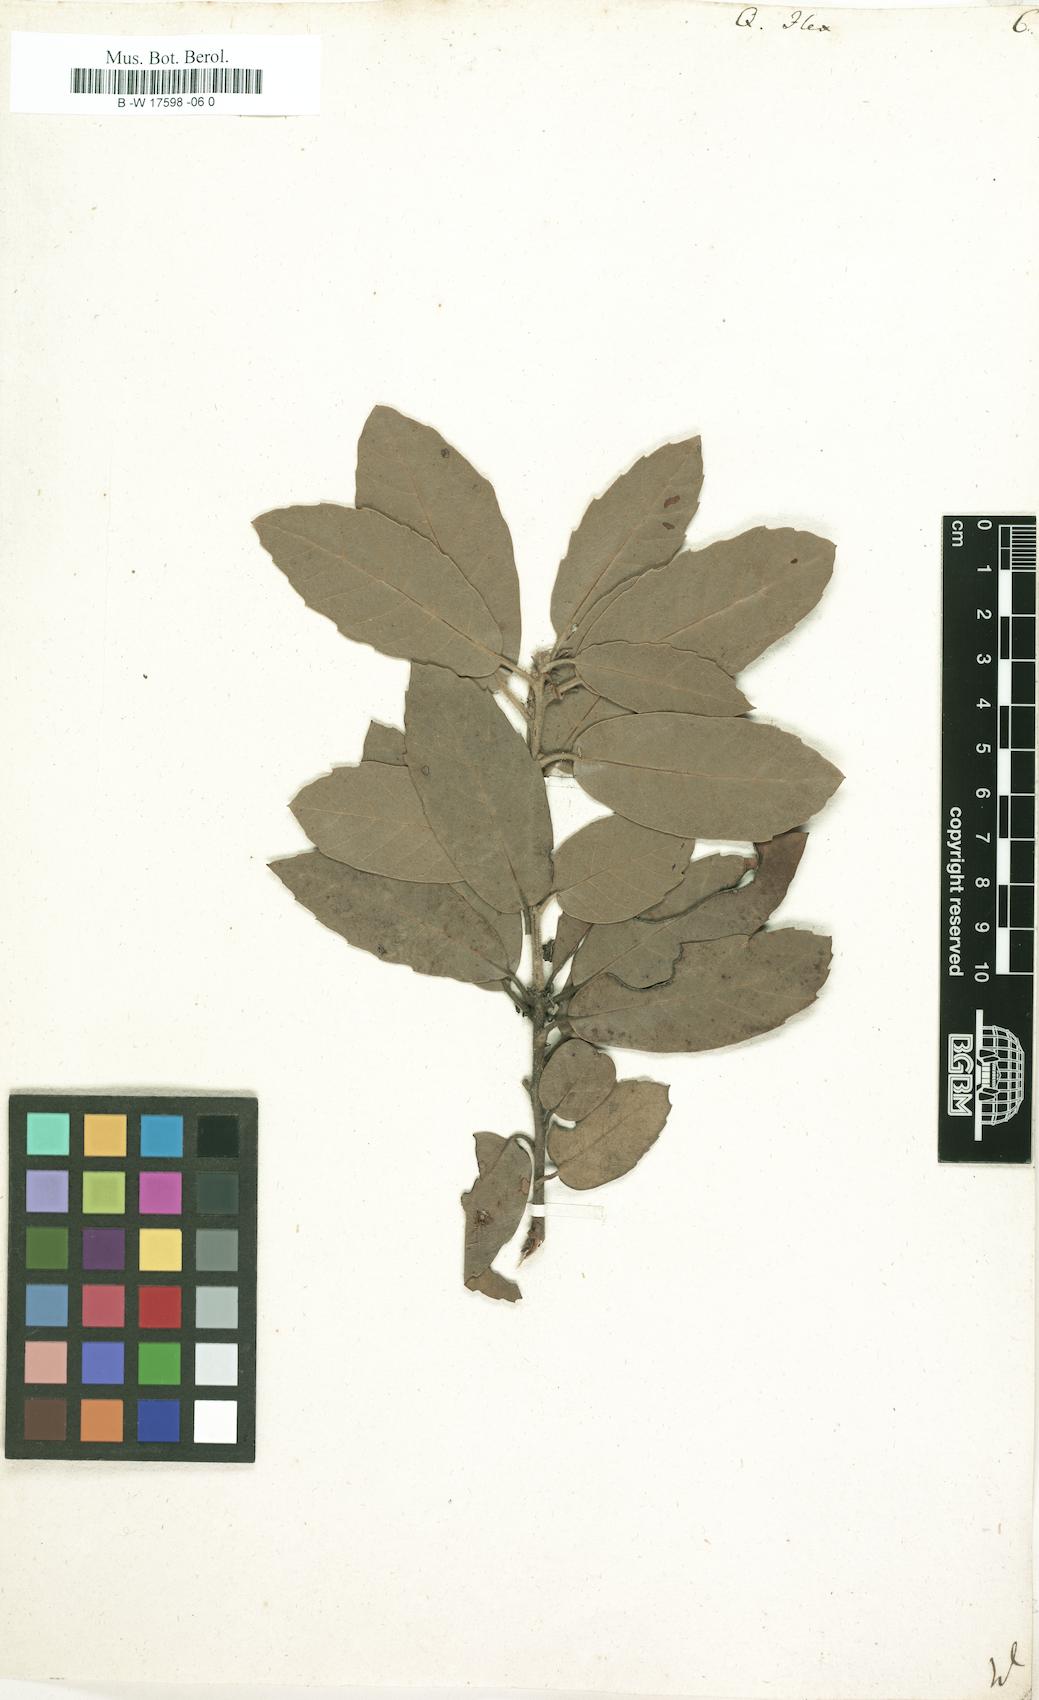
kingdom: Plantae
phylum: Tracheophyta
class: Magnoliopsida
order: Fagales
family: Fagaceae
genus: Quercus
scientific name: Quercus ilex
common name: Evergreen oak
